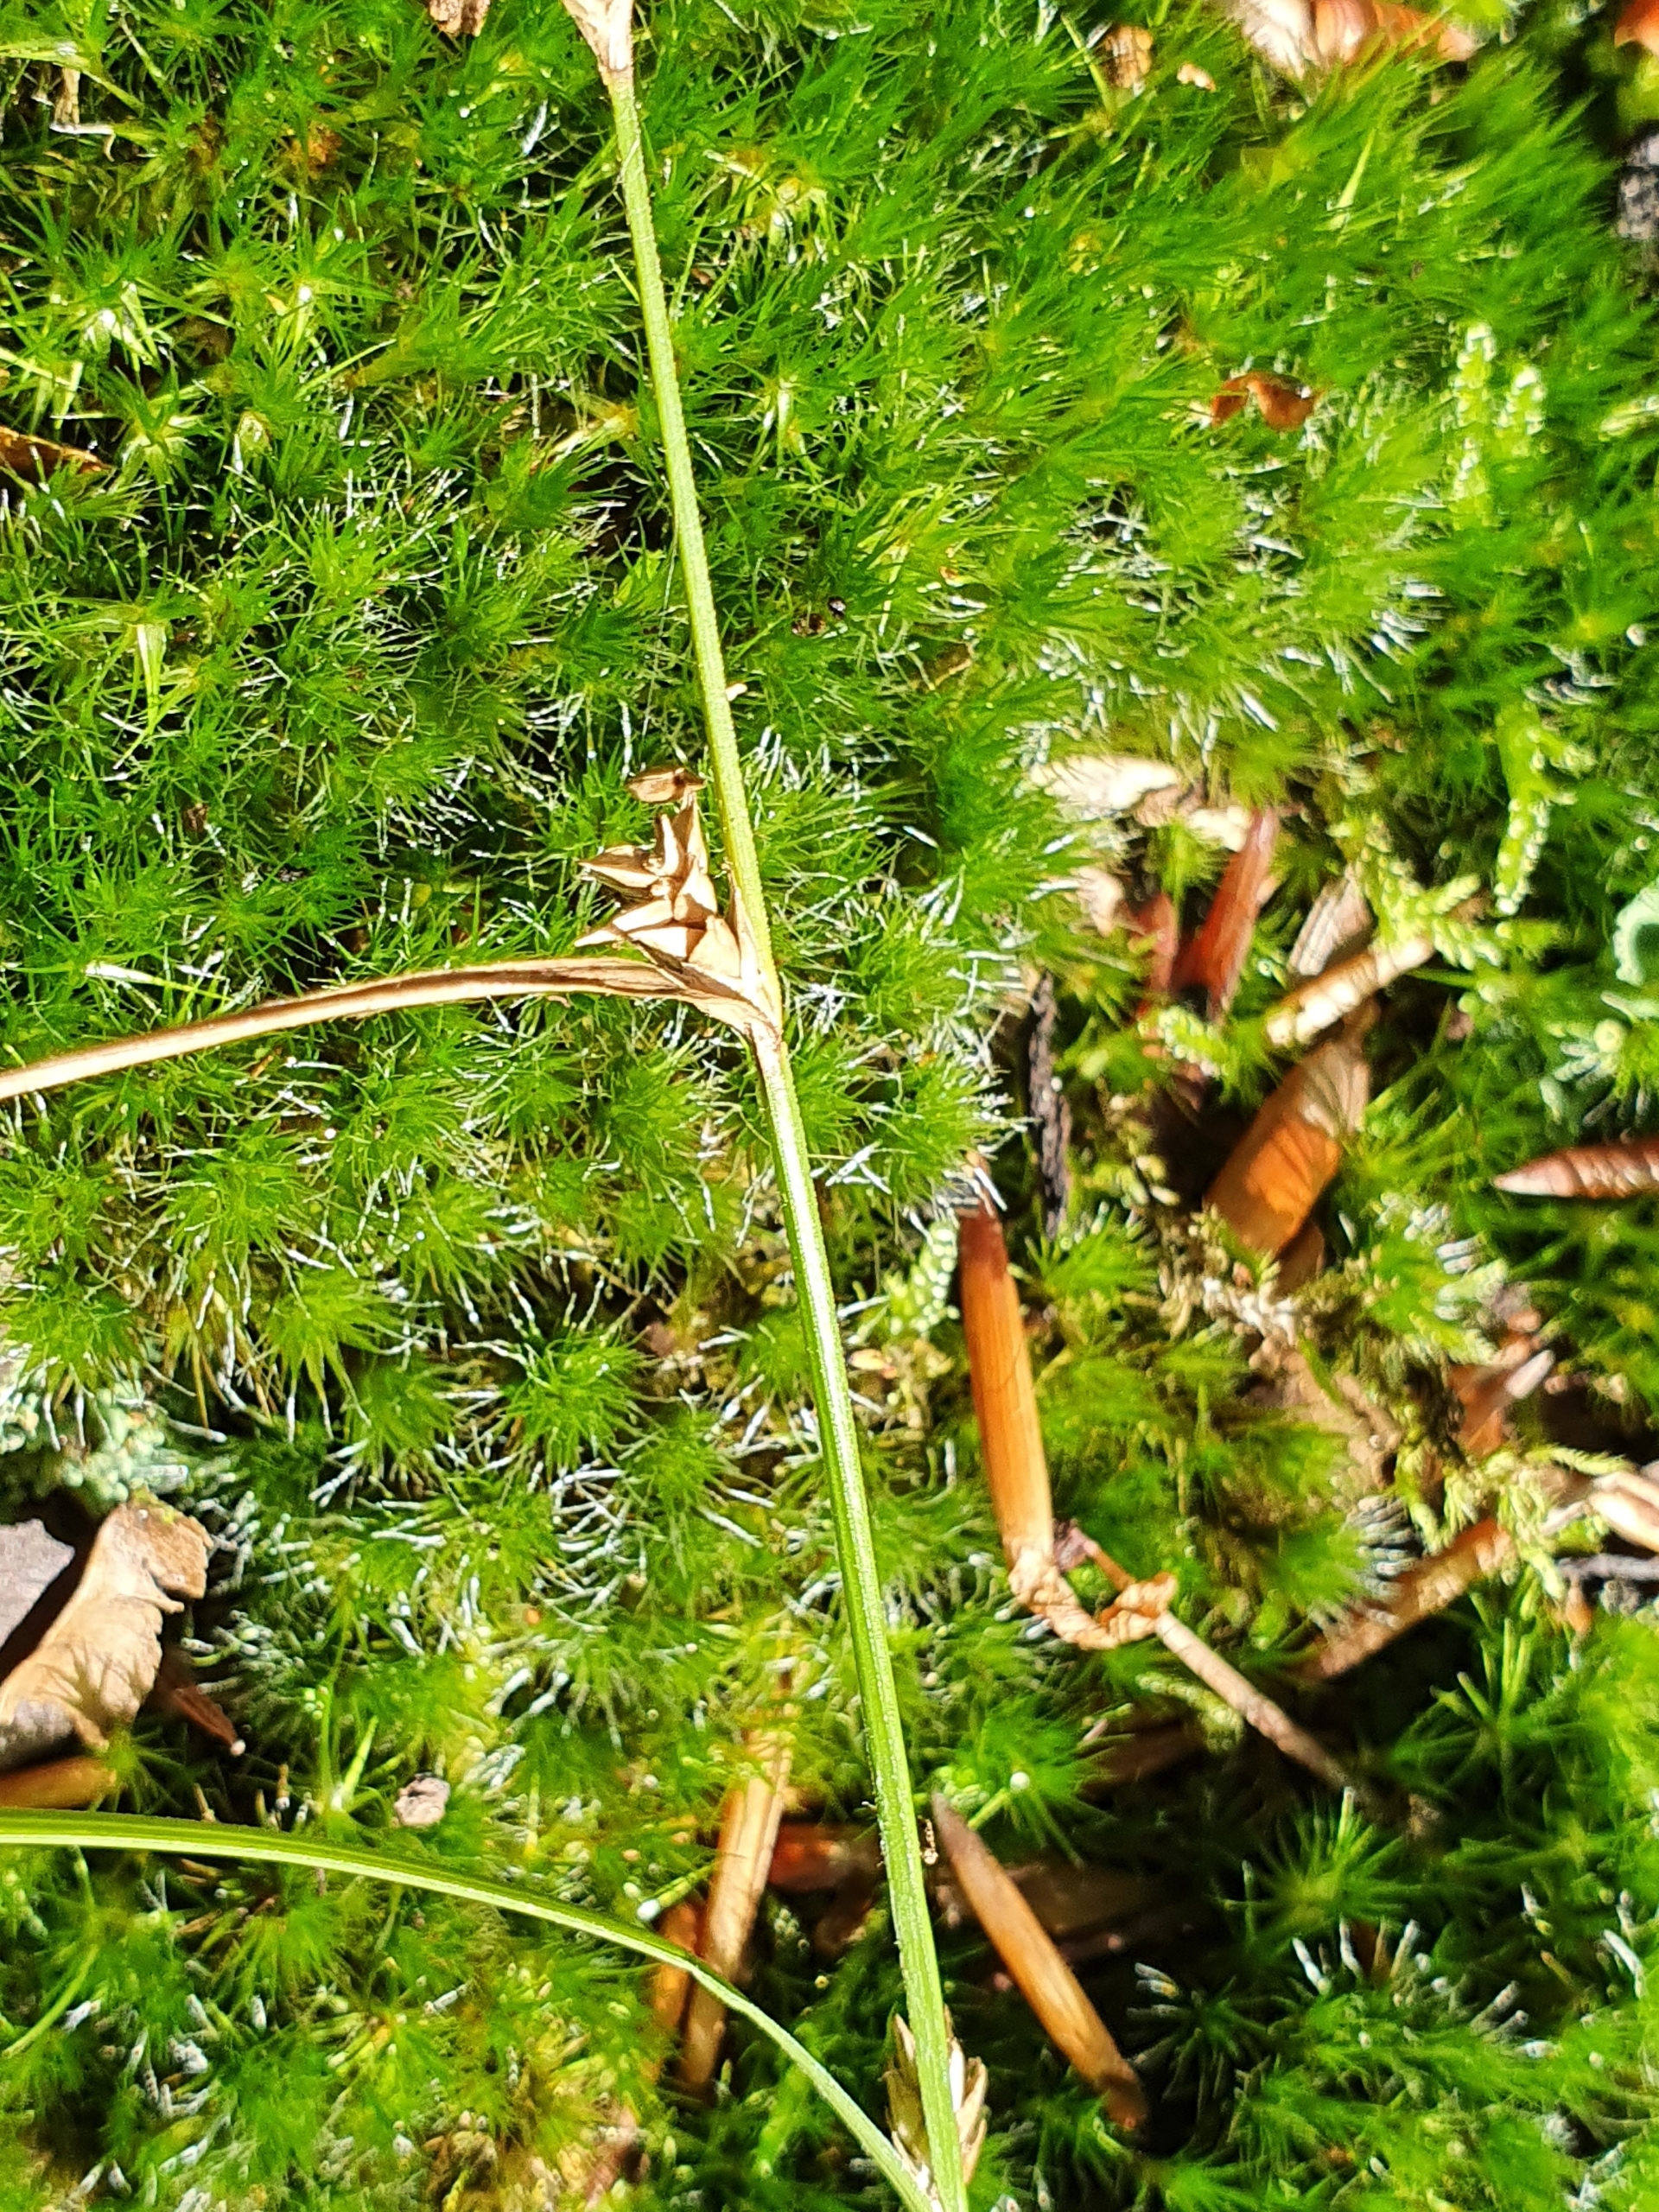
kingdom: Plantae
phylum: Tracheophyta
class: Liliopsida
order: Poales
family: Cyperaceae
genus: Carex
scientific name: Carex remota
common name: Akselblomstret star
